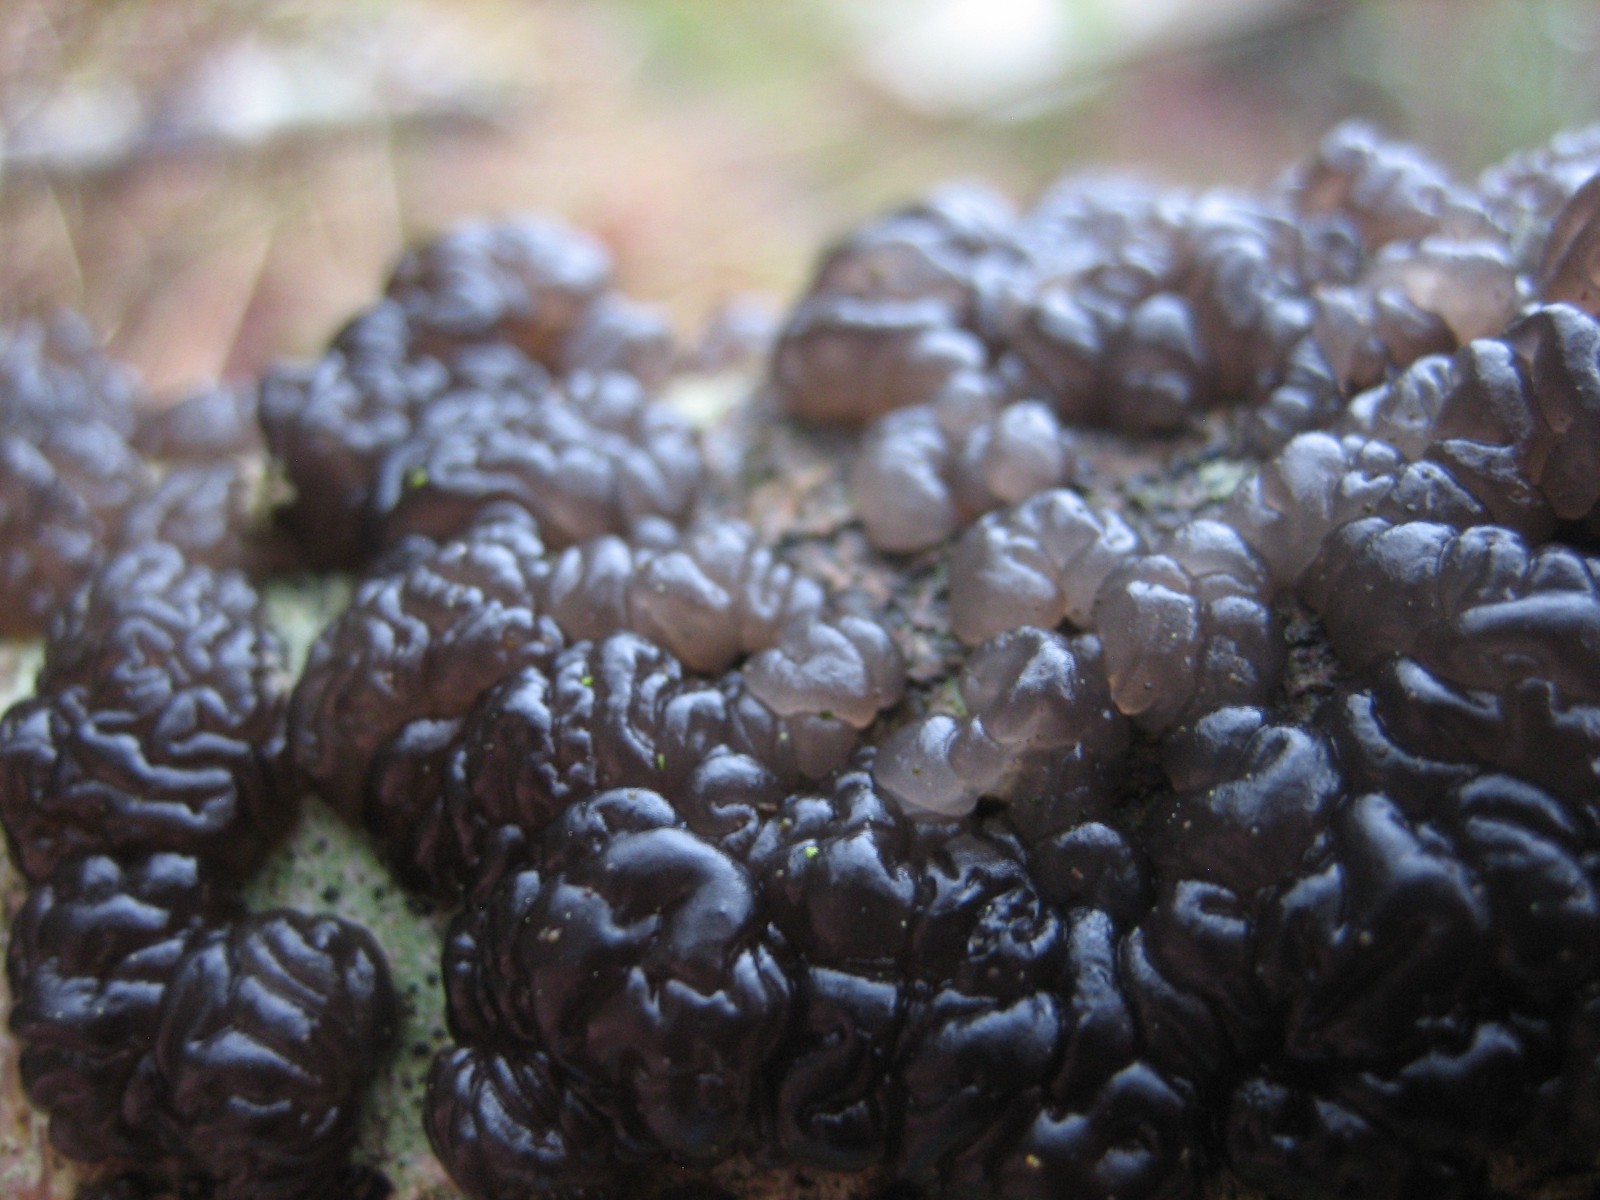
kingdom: Fungi
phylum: Basidiomycota
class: Agaricomycetes
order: Auriculariales
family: Auriculariaceae
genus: Exidia
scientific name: Exidia nigricans
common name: almindelig bævretop
